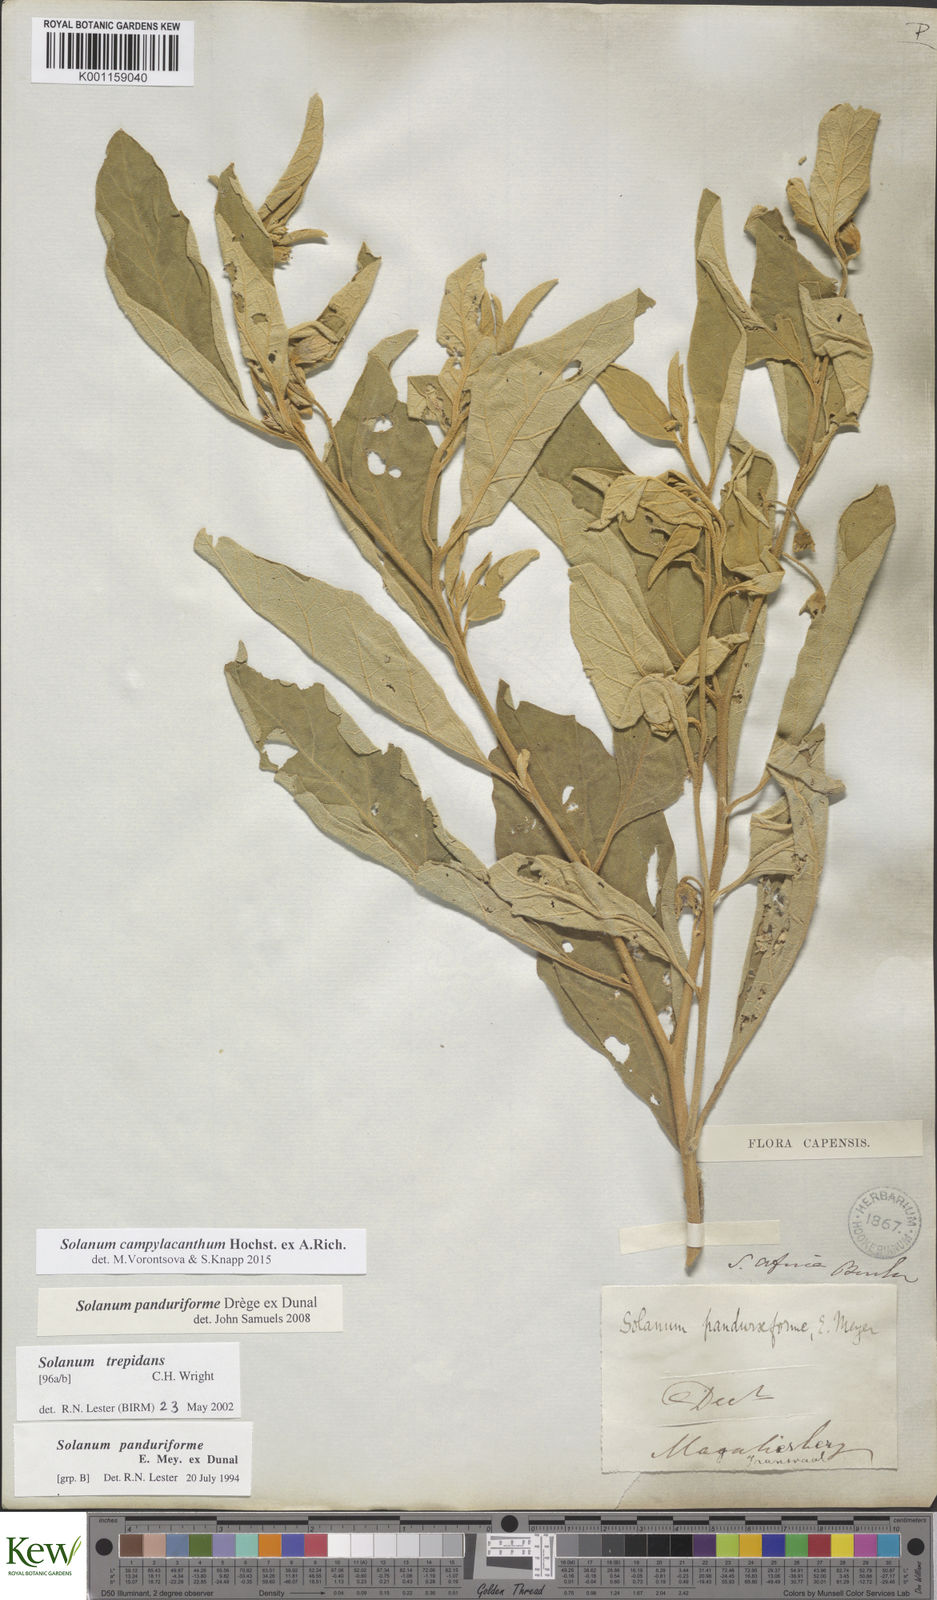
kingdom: Plantae
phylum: Tracheophyta
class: Magnoliopsida
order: Solanales
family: Solanaceae
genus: Solanum
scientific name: Solanum campylacanthum
